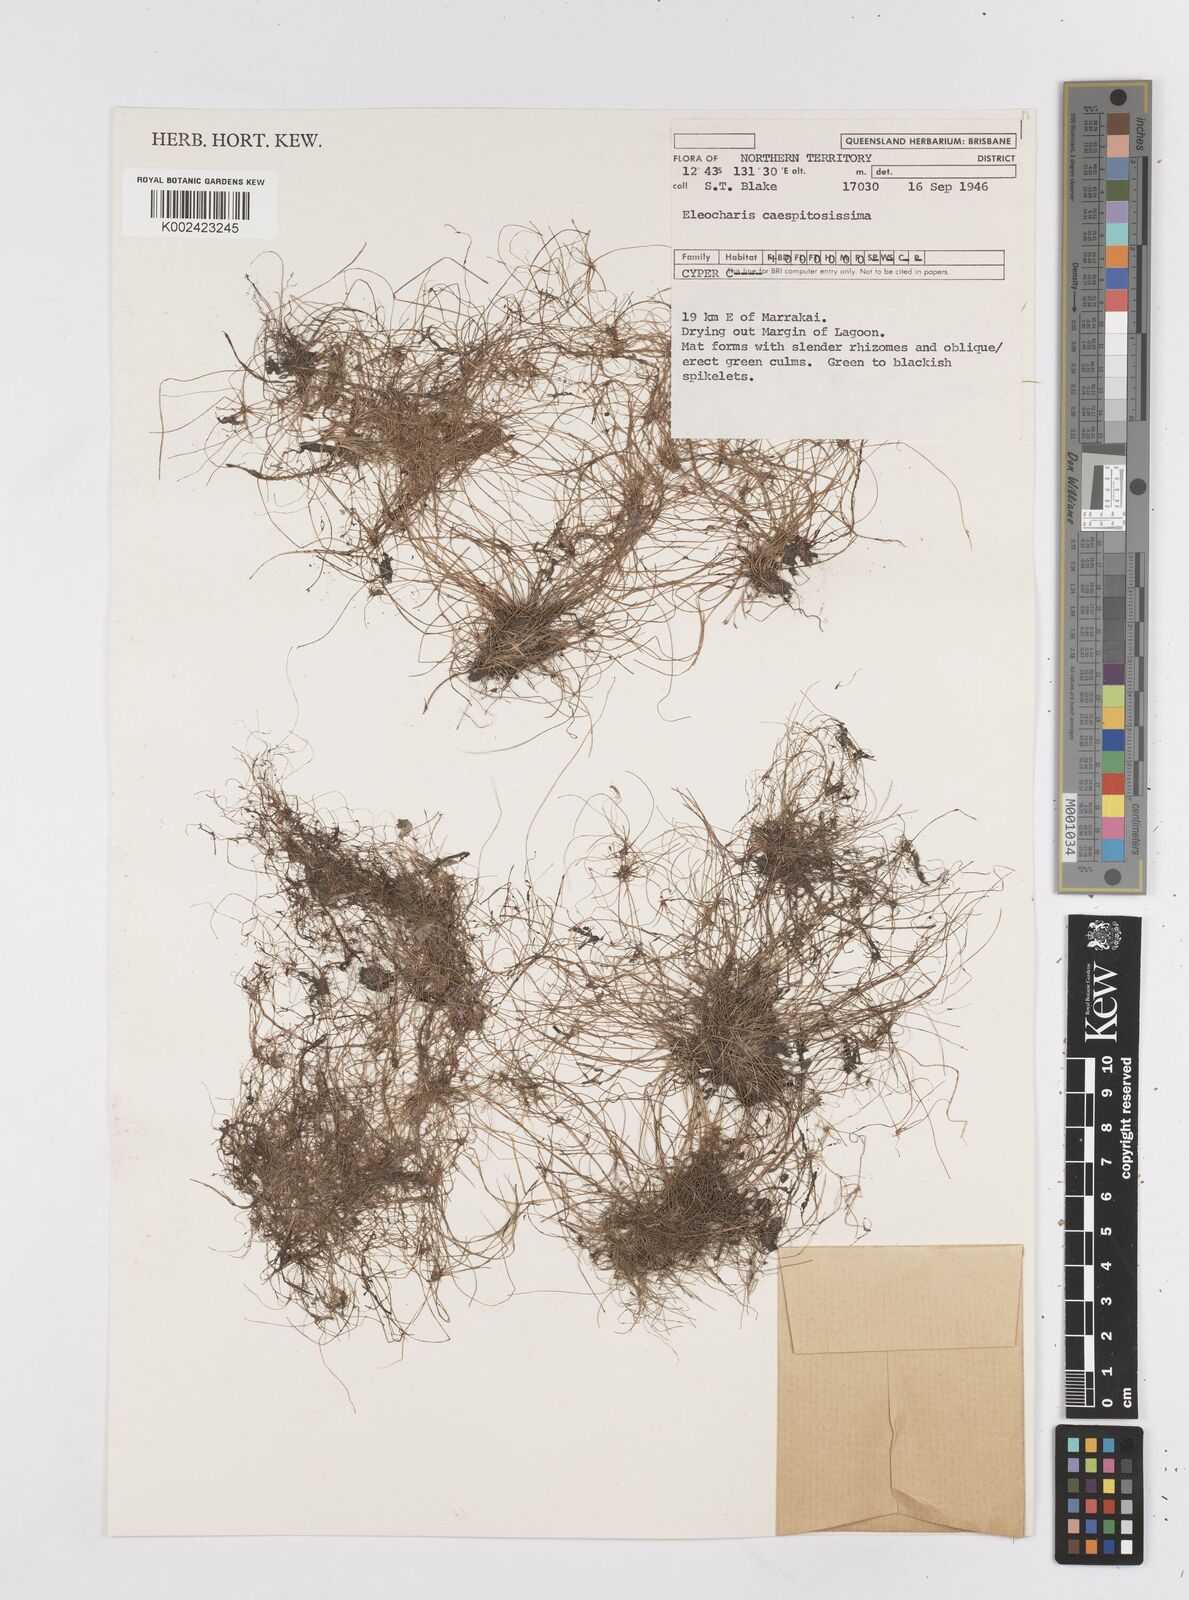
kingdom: Plantae
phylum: Tracheophyta
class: Liliopsida
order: Poales
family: Cyperaceae
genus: Eleocharis
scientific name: Eleocharis caespitosissima
